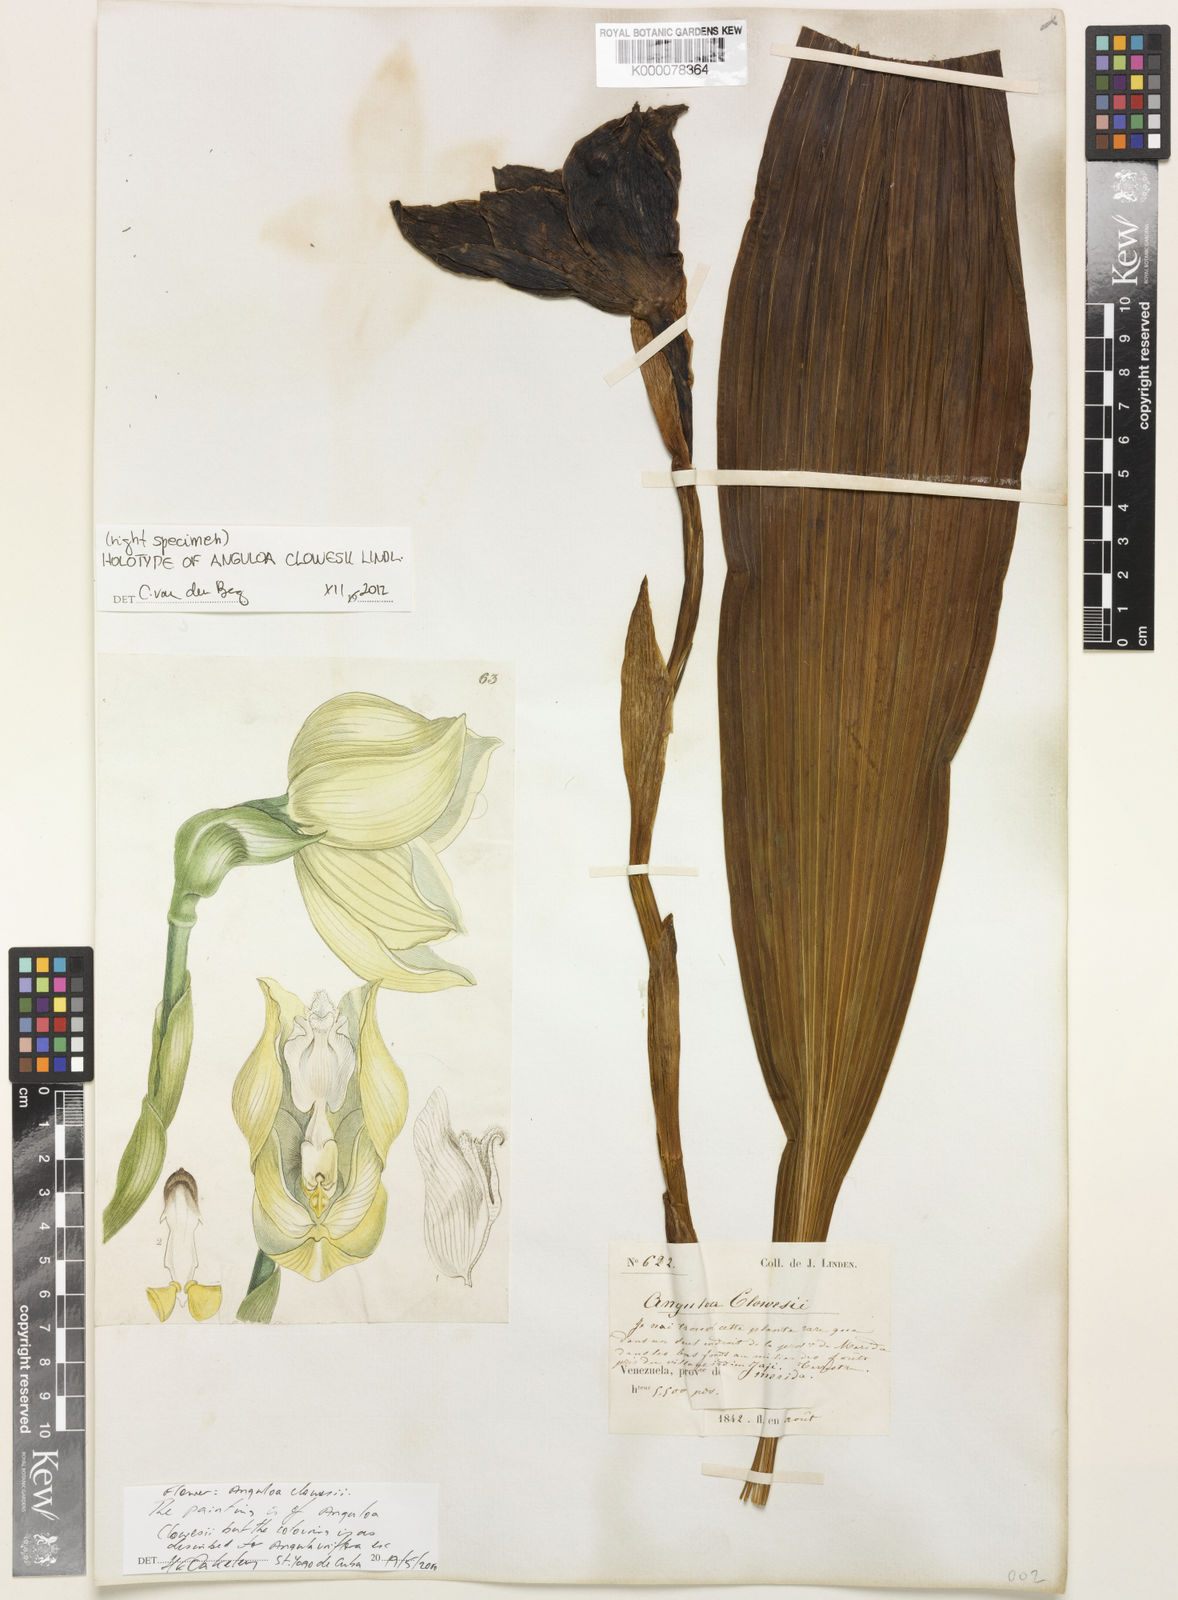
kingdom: Plantae
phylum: Tracheophyta
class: Liliopsida
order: Asparagales
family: Orchidaceae
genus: Anguloa
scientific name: Anguloa clowesii
